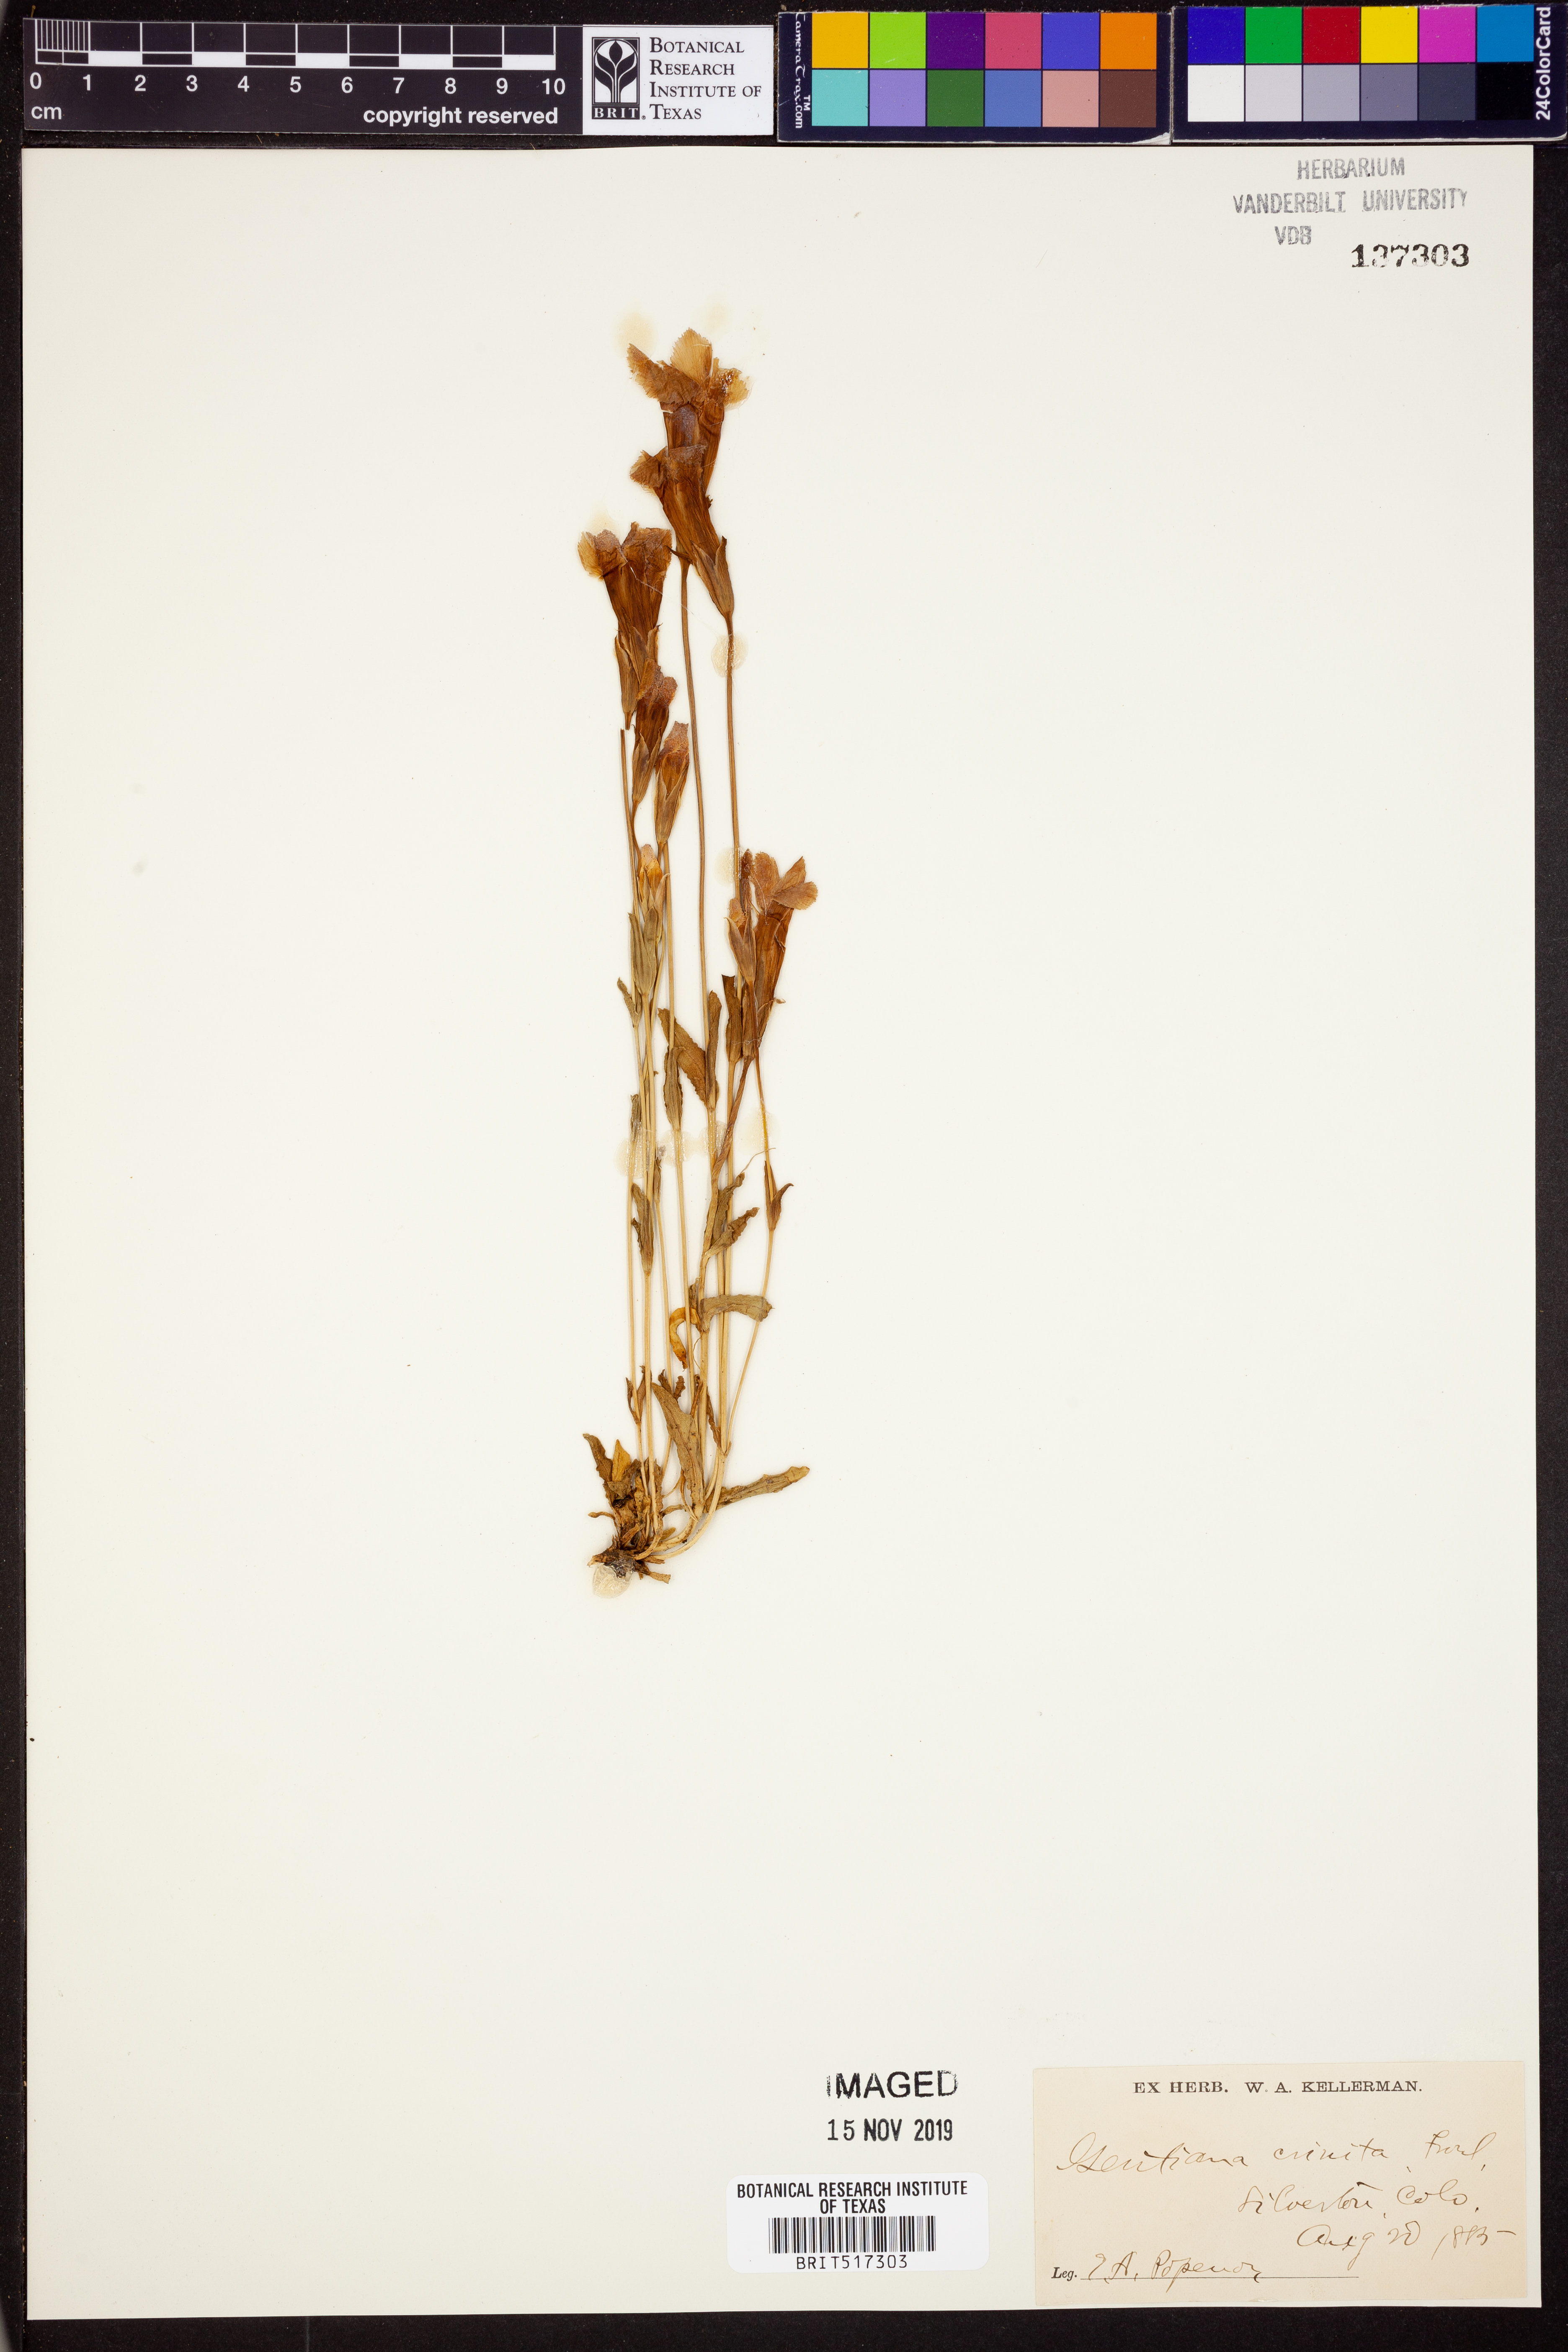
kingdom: Plantae
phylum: Tracheophyta
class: Magnoliopsida
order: Gentianales
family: Gentianaceae
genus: Gentianopsis
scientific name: Gentianopsis crinita
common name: Fringed-gentian
